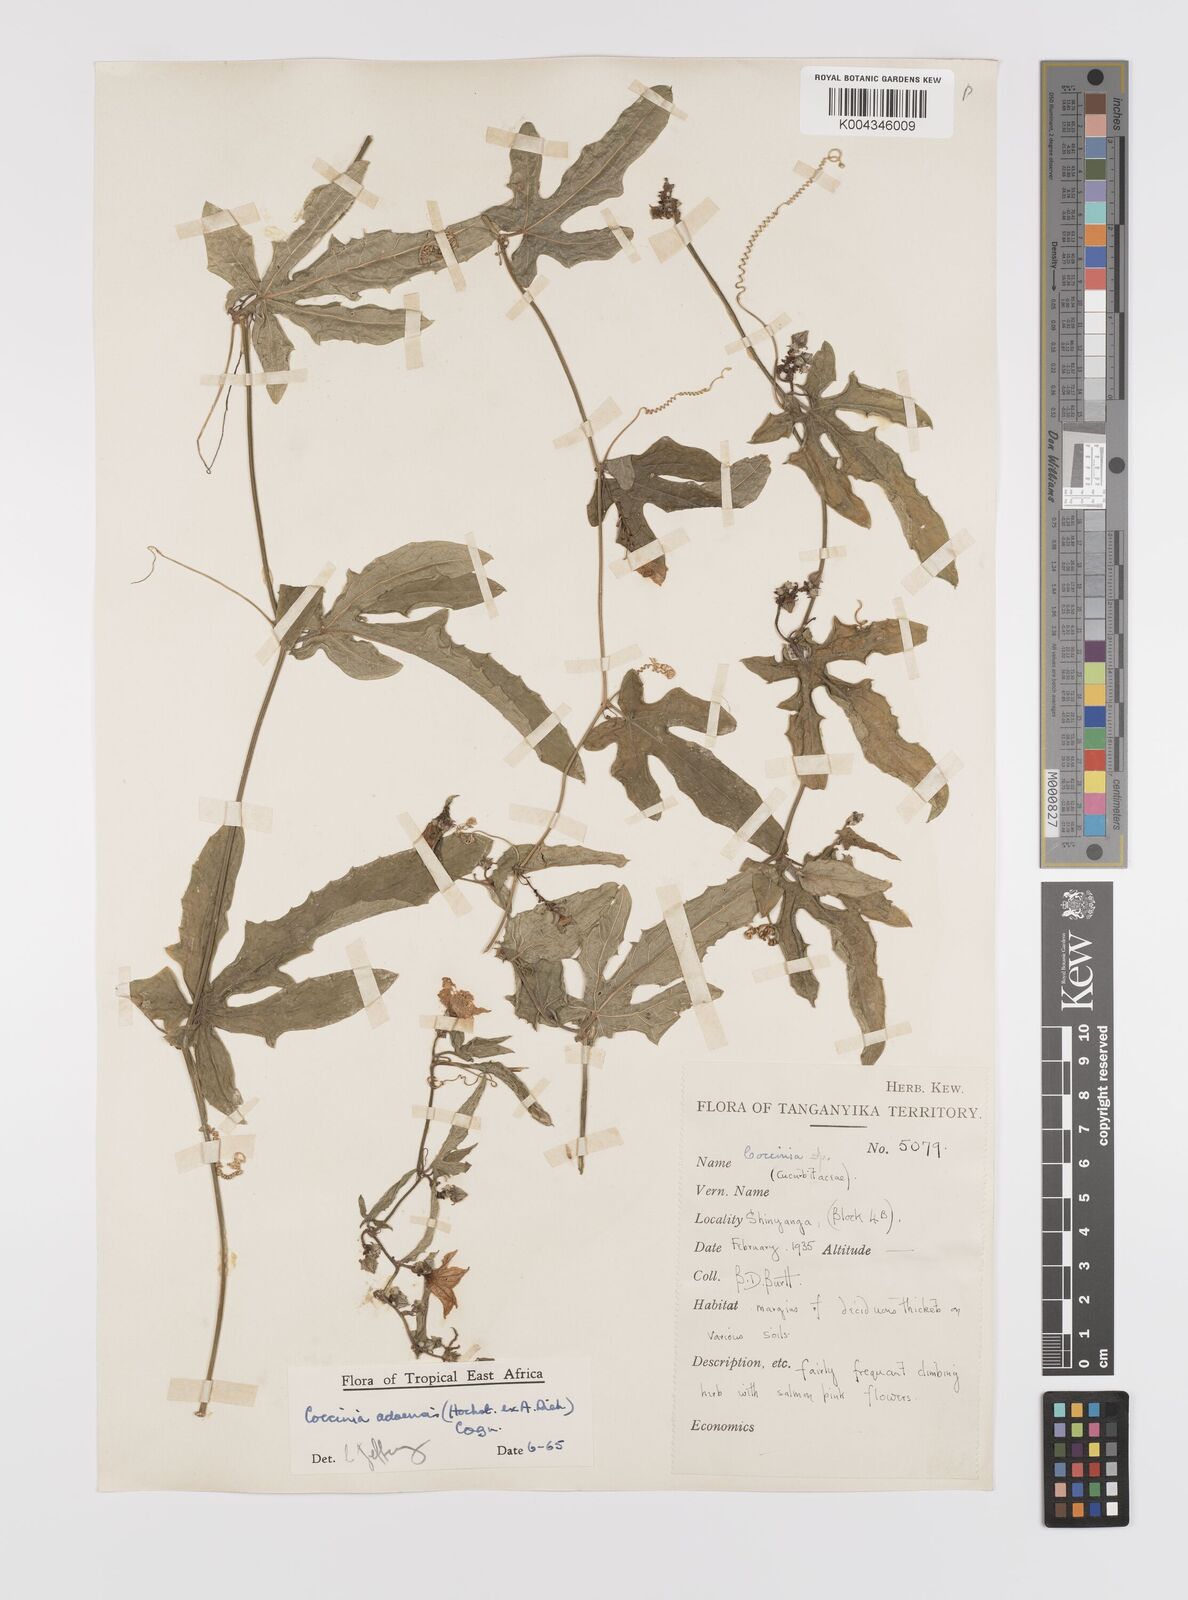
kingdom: Plantae
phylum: Tracheophyta
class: Magnoliopsida
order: Cucurbitales
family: Cucurbitaceae
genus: Coccinia
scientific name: Coccinia adoensis
